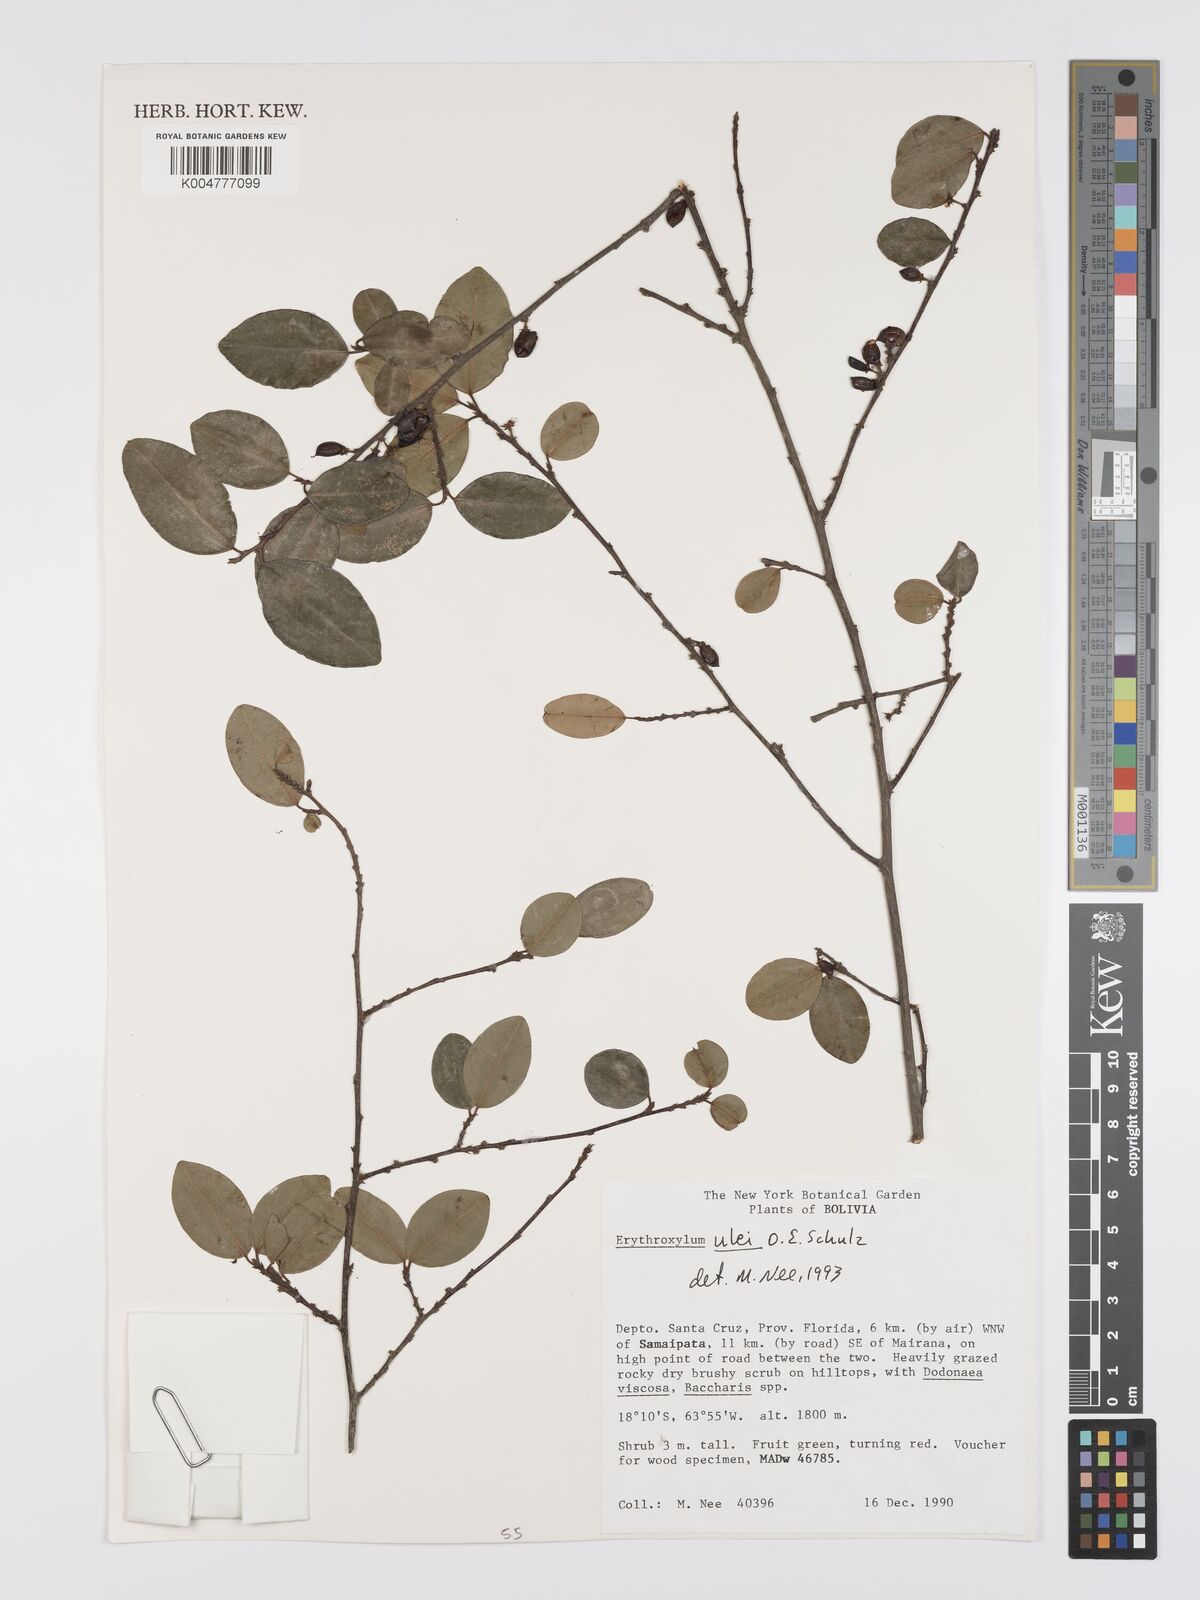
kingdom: Plantae
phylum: Tracheophyta
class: Magnoliopsida
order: Malpighiales
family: Erythroxylaceae
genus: Erythroxylum
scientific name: Erythroxylum ulei
